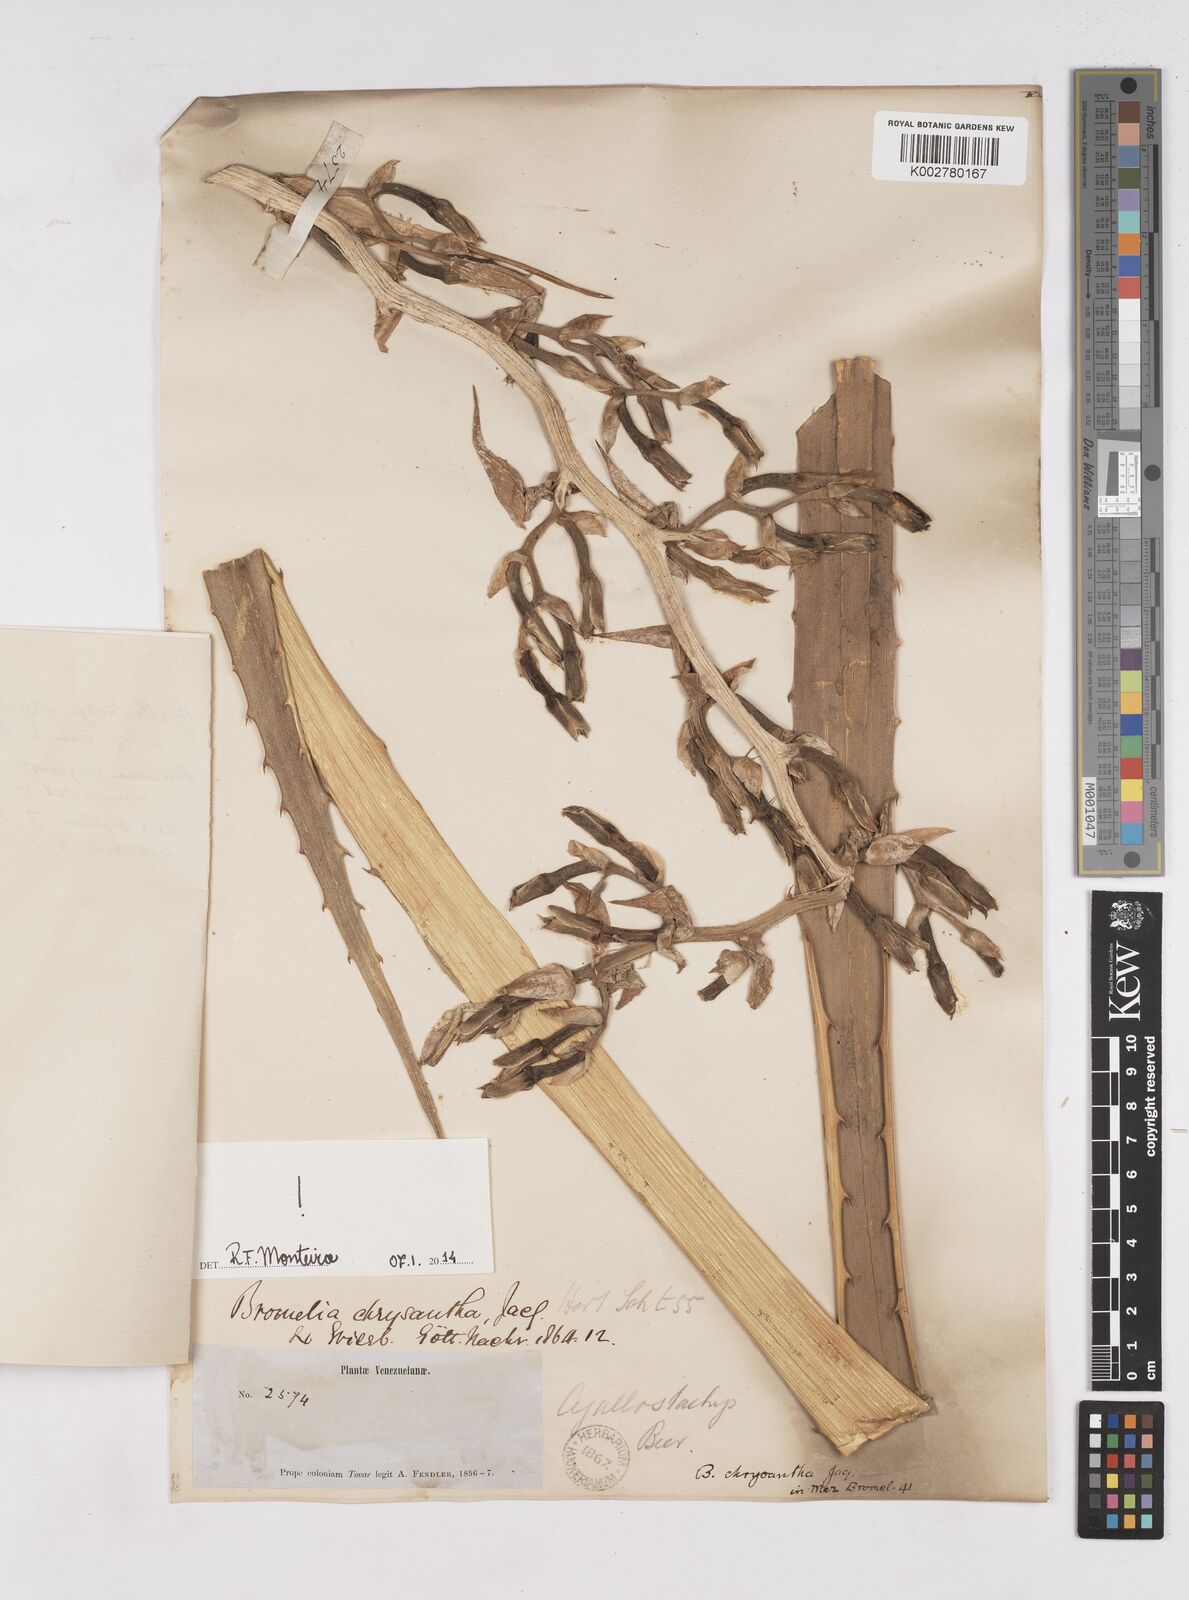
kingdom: Plantae
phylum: Tracheophyta
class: Liliopsida
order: Poales
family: Bromeliaceae
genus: Bromelia
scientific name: Bromelia chrysantha
